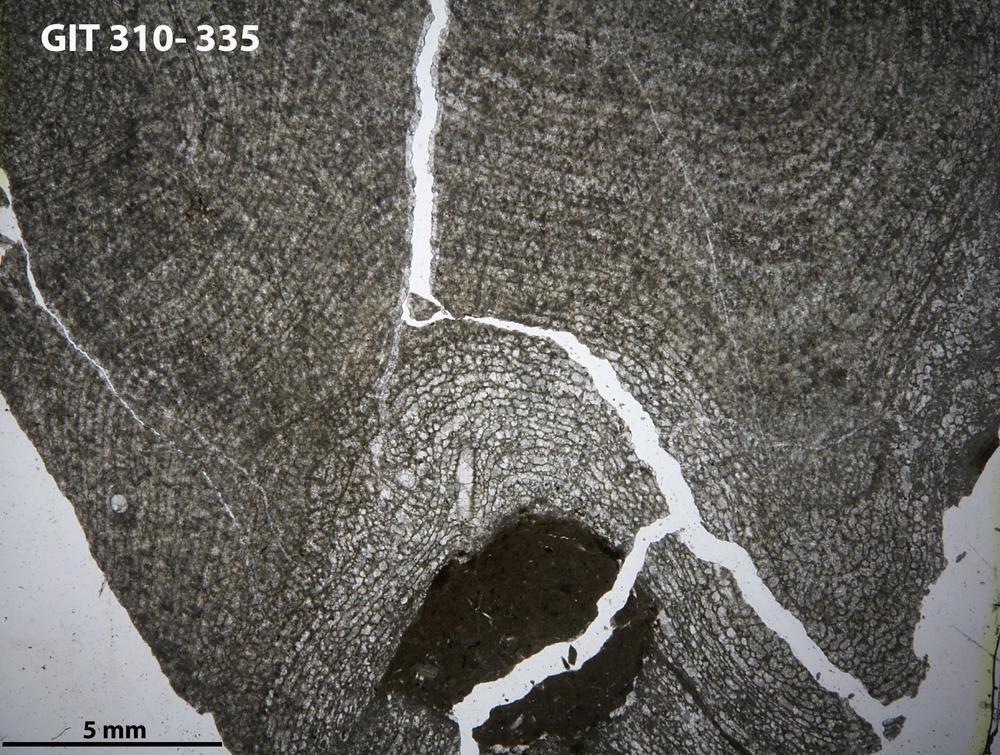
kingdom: Animalia
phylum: Porifera
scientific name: Porifera
